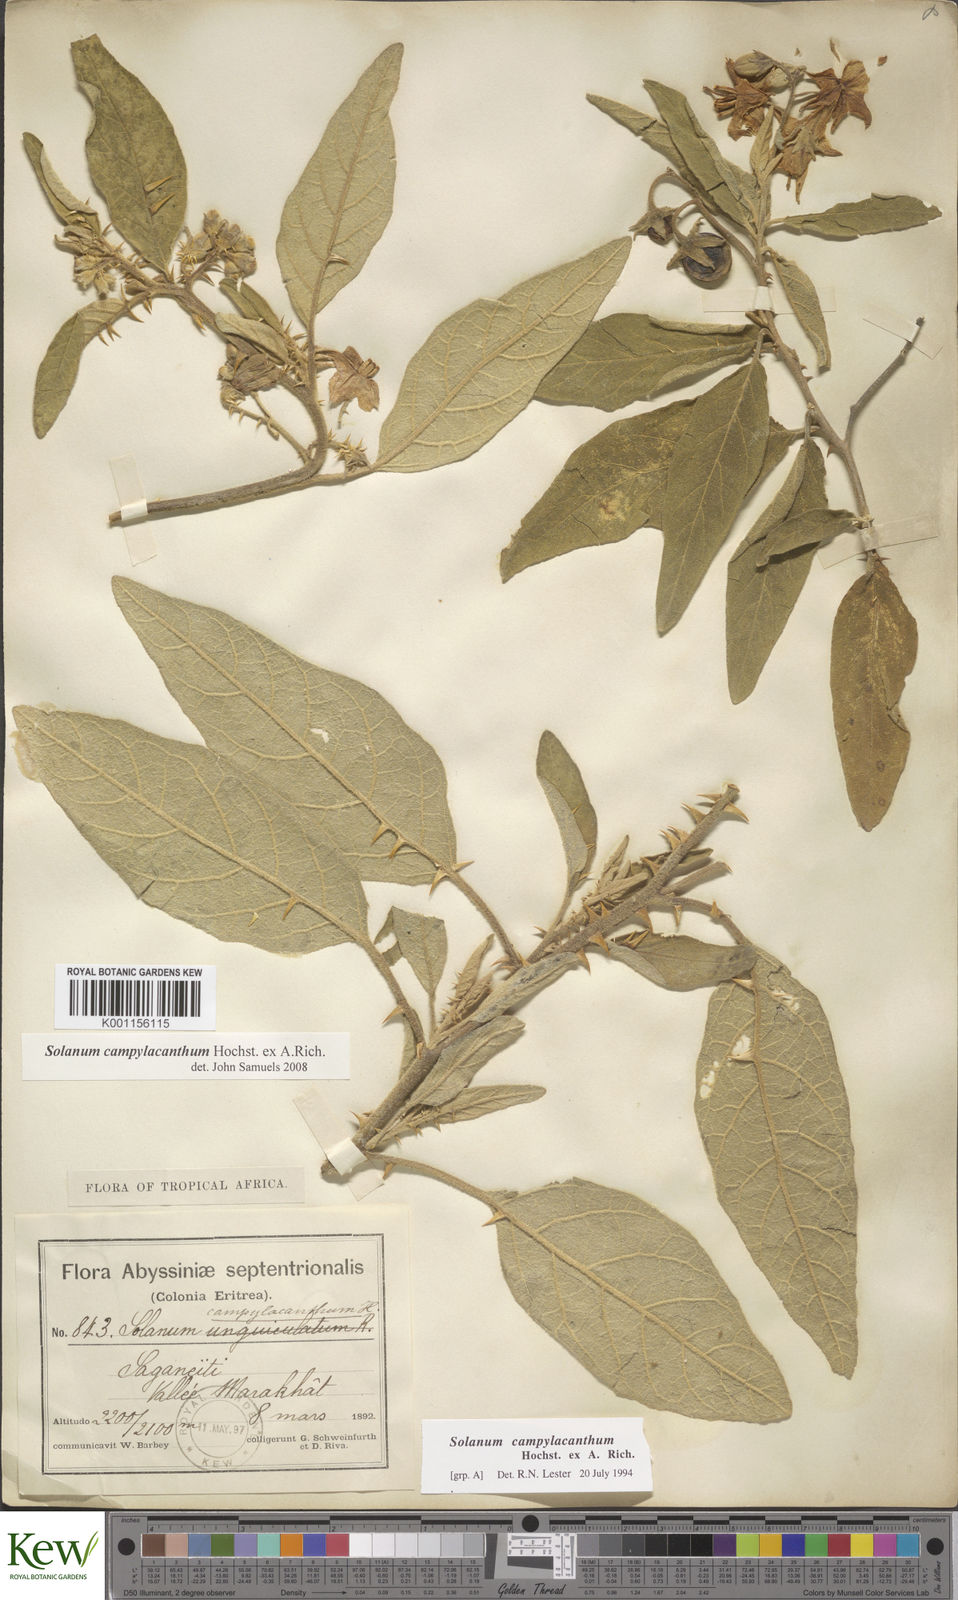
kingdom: Plantae
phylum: Tracheophyta
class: Magnoliopsida
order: Solanales
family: Solanaceae
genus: Solanum
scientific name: Solanum campylacanthum
